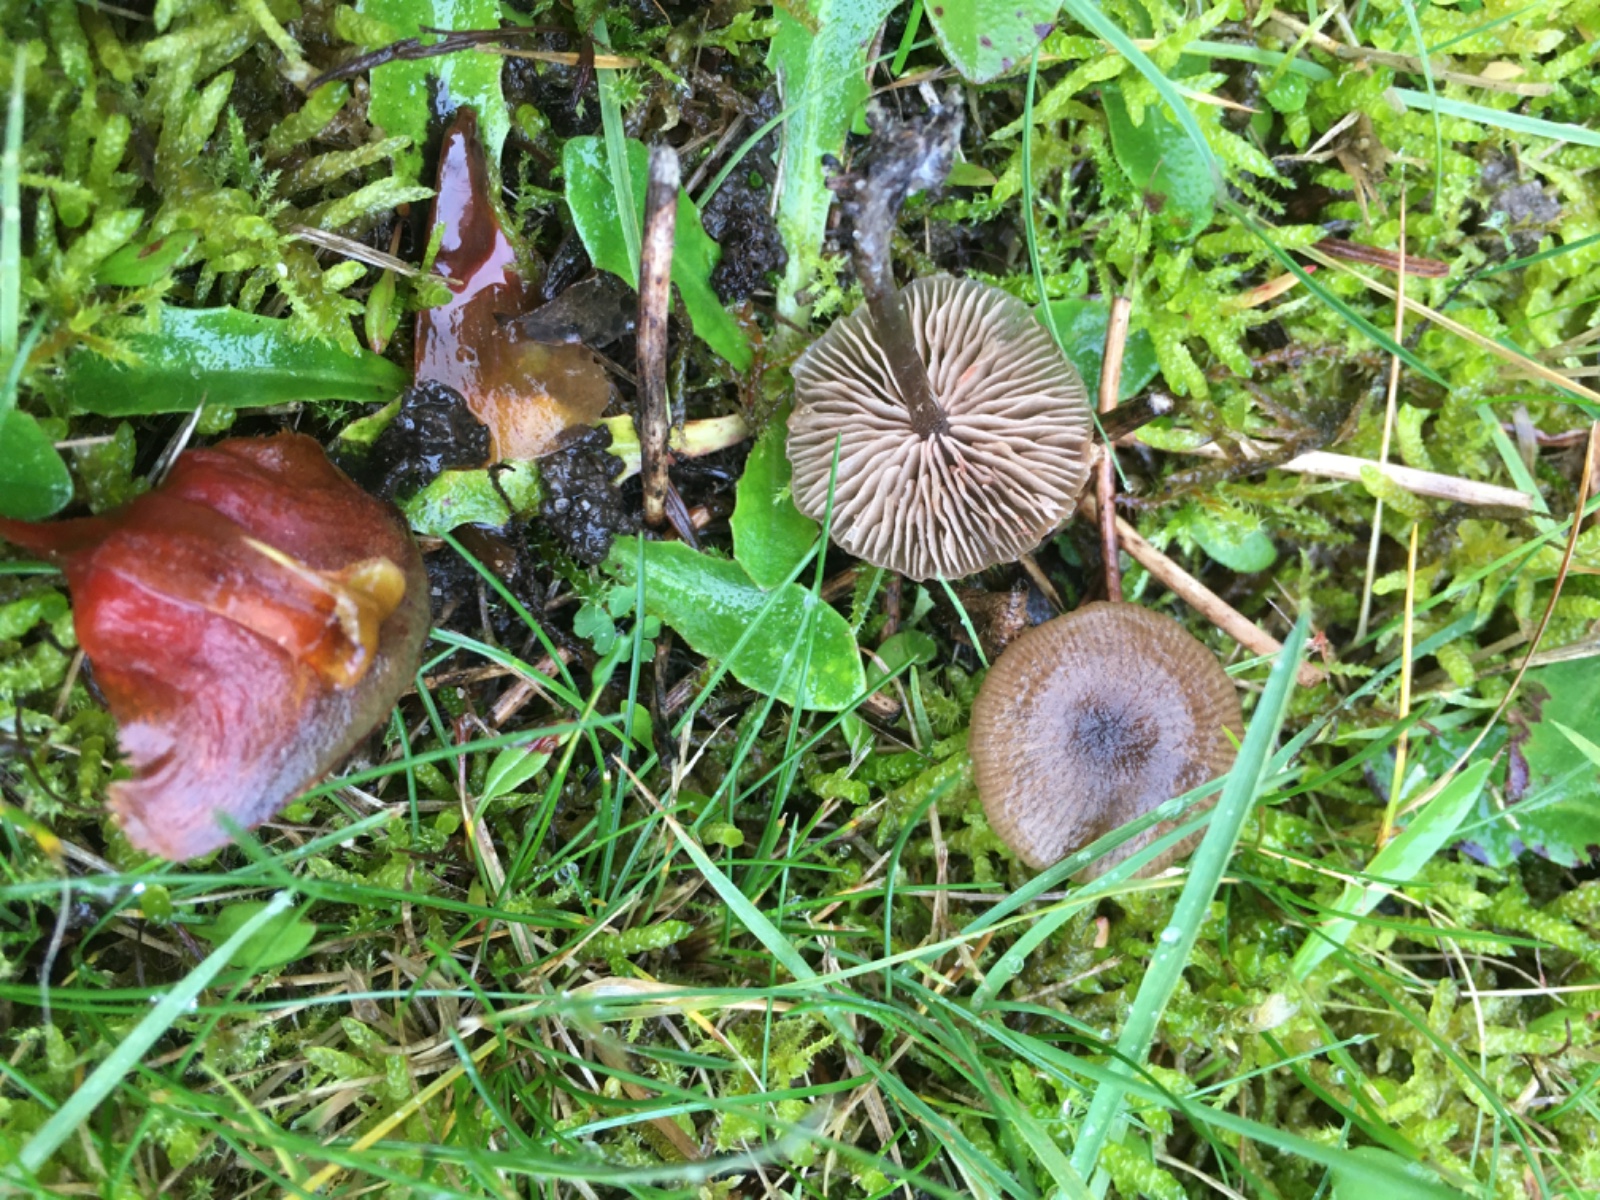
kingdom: Fungi
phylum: Basidiomycota
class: Agaricomycetes
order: Agaricales
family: Entolomataceae
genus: Entoloma
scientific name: Entoloma
